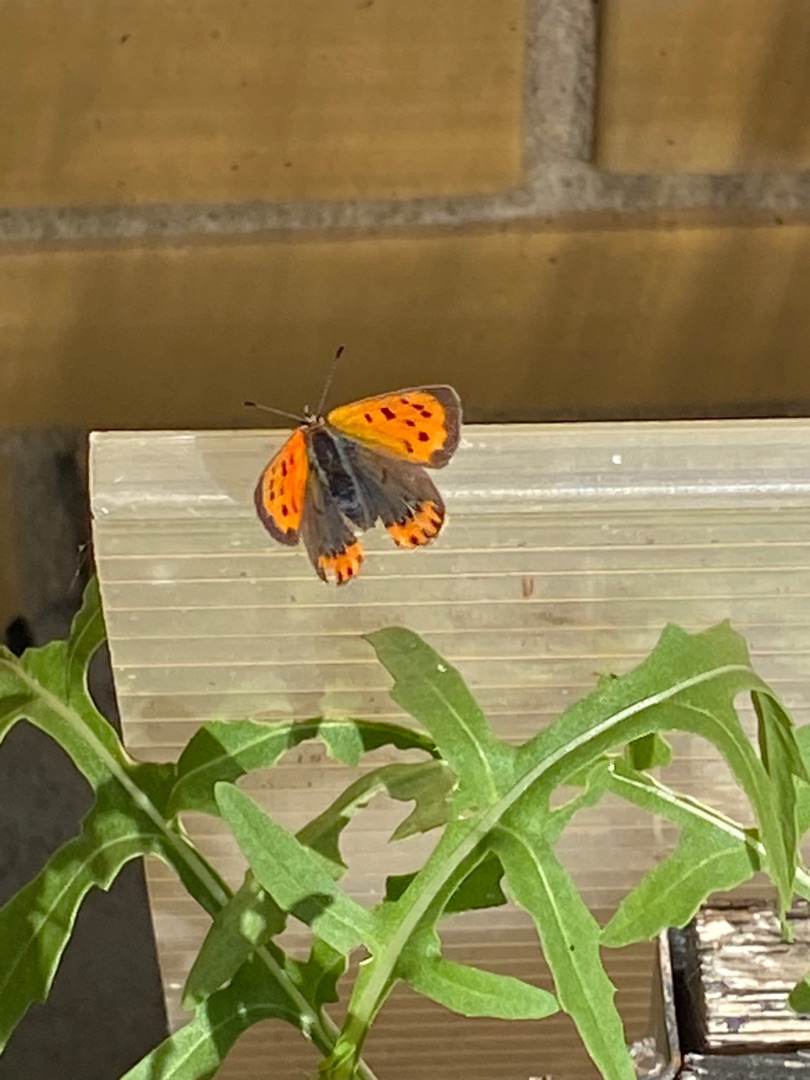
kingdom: Animalia
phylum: Arthropoda
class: Insecta
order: Lepidoptera
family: Lycaenidae
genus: Lycaena
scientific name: Lycaena phlaeas
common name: Lille ildfugl
